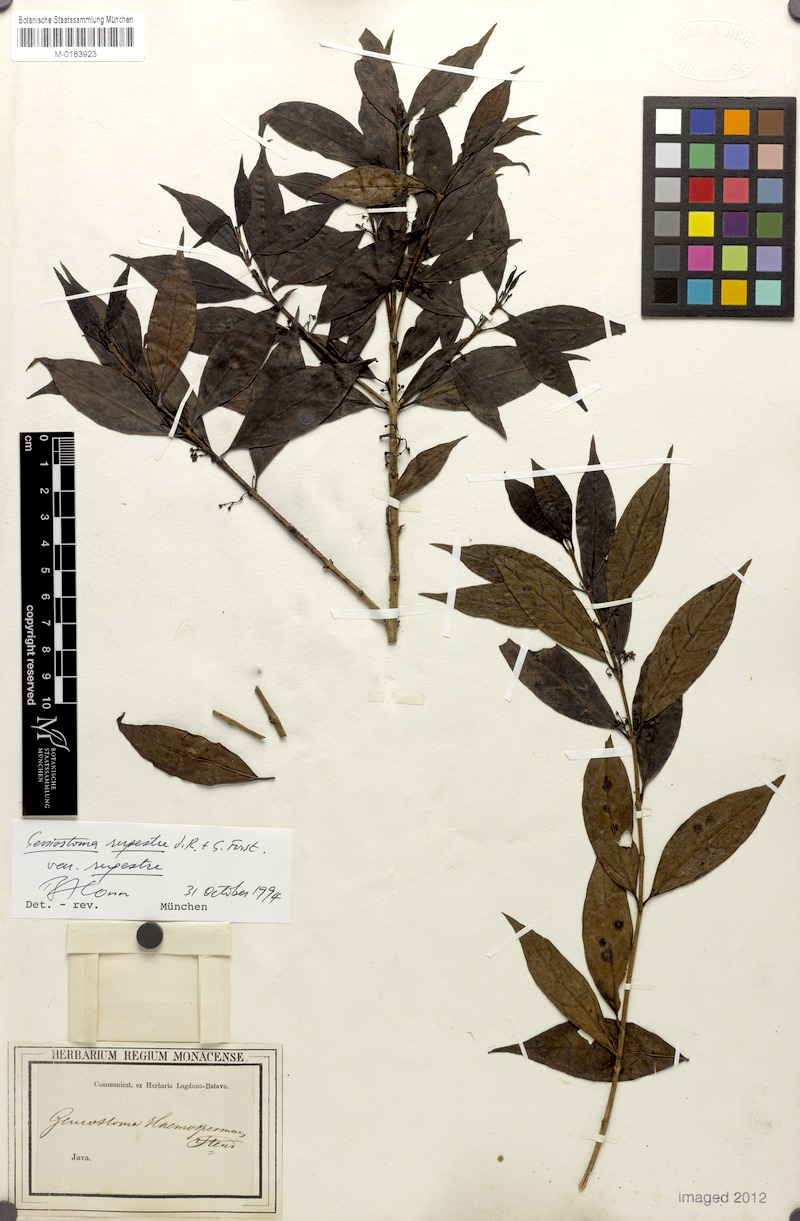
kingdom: Plantae
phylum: Tracheophyta
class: Magnoliopsida
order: Gentianales
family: Loganiaceae
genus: Geniostoma
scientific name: Geniostoma rupestre
